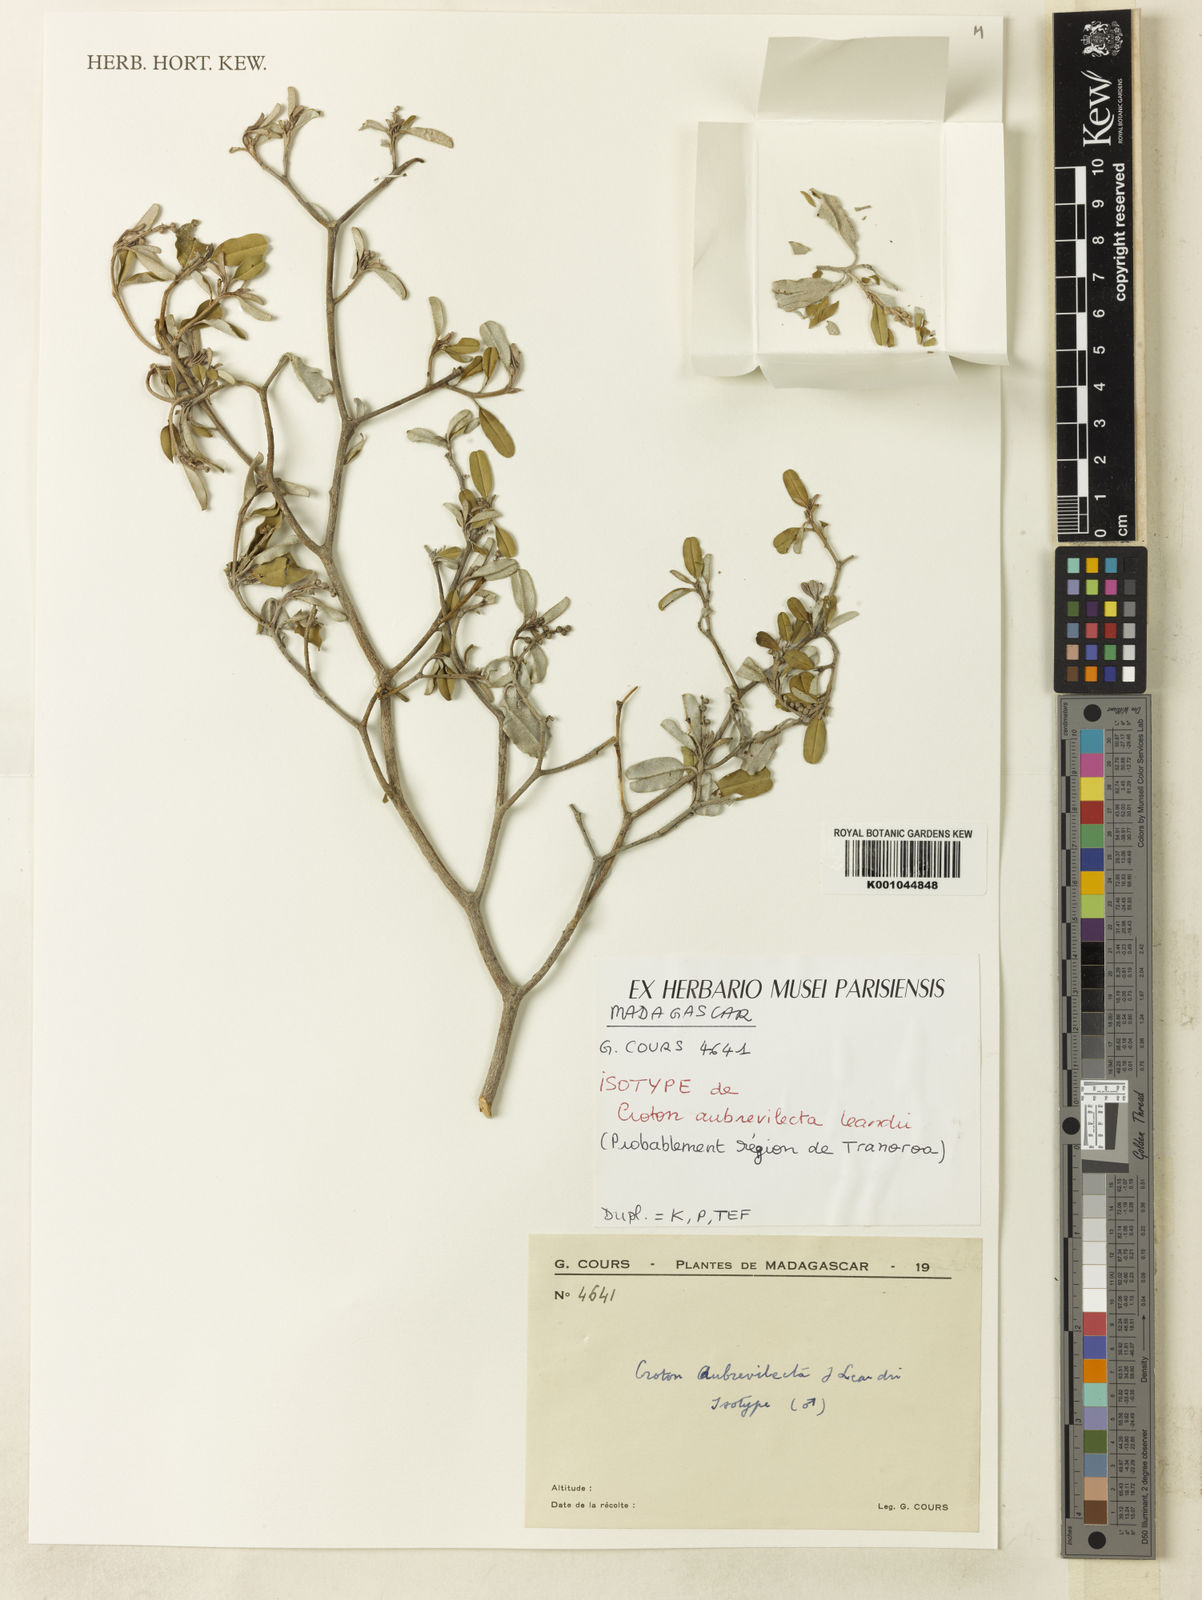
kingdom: Plantae
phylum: Tracheophyta
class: Magnoliopsida
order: Malpighiales
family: Euphorbiaceae
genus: Croton
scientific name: Croton aubrevilecta
